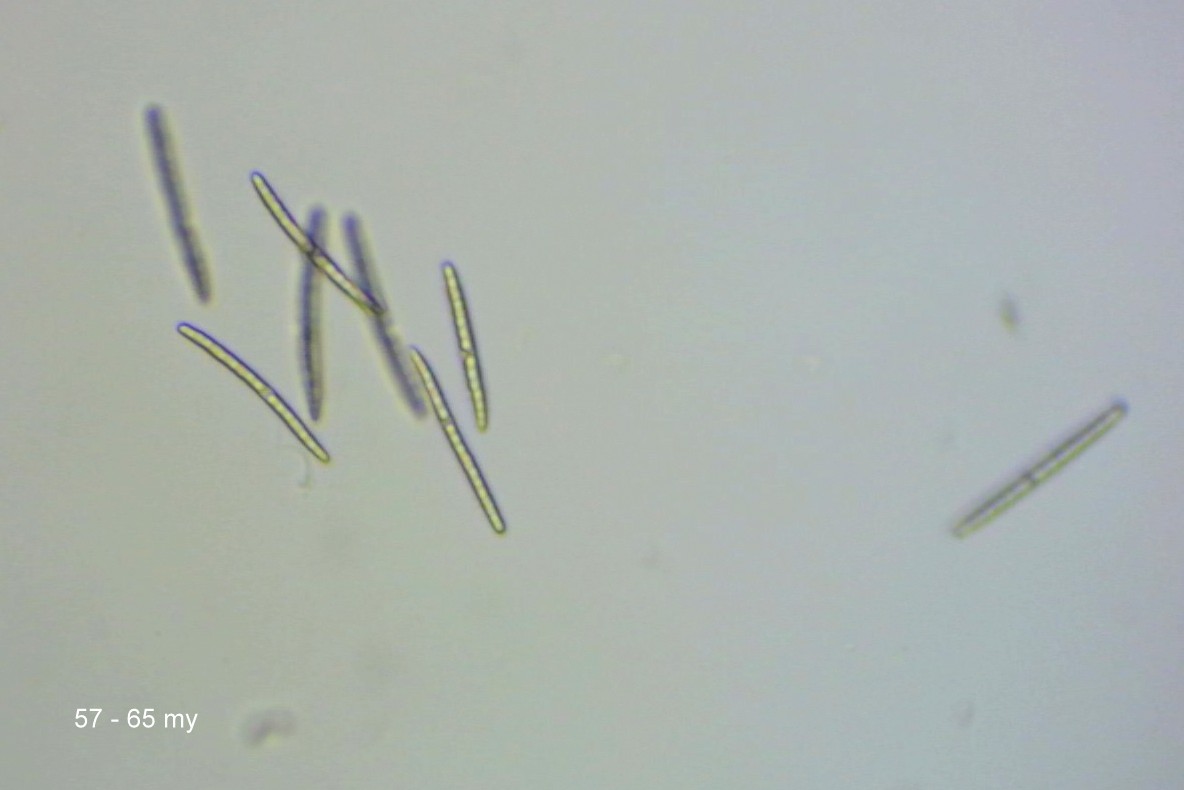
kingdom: Fungi
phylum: Ascomycota
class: Geoglossomycetes
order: Geoglossales
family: Geoglossaceae
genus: Hemileucoglossum
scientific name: Hemileucoglossum elongatum
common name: småsporet jordtunge
